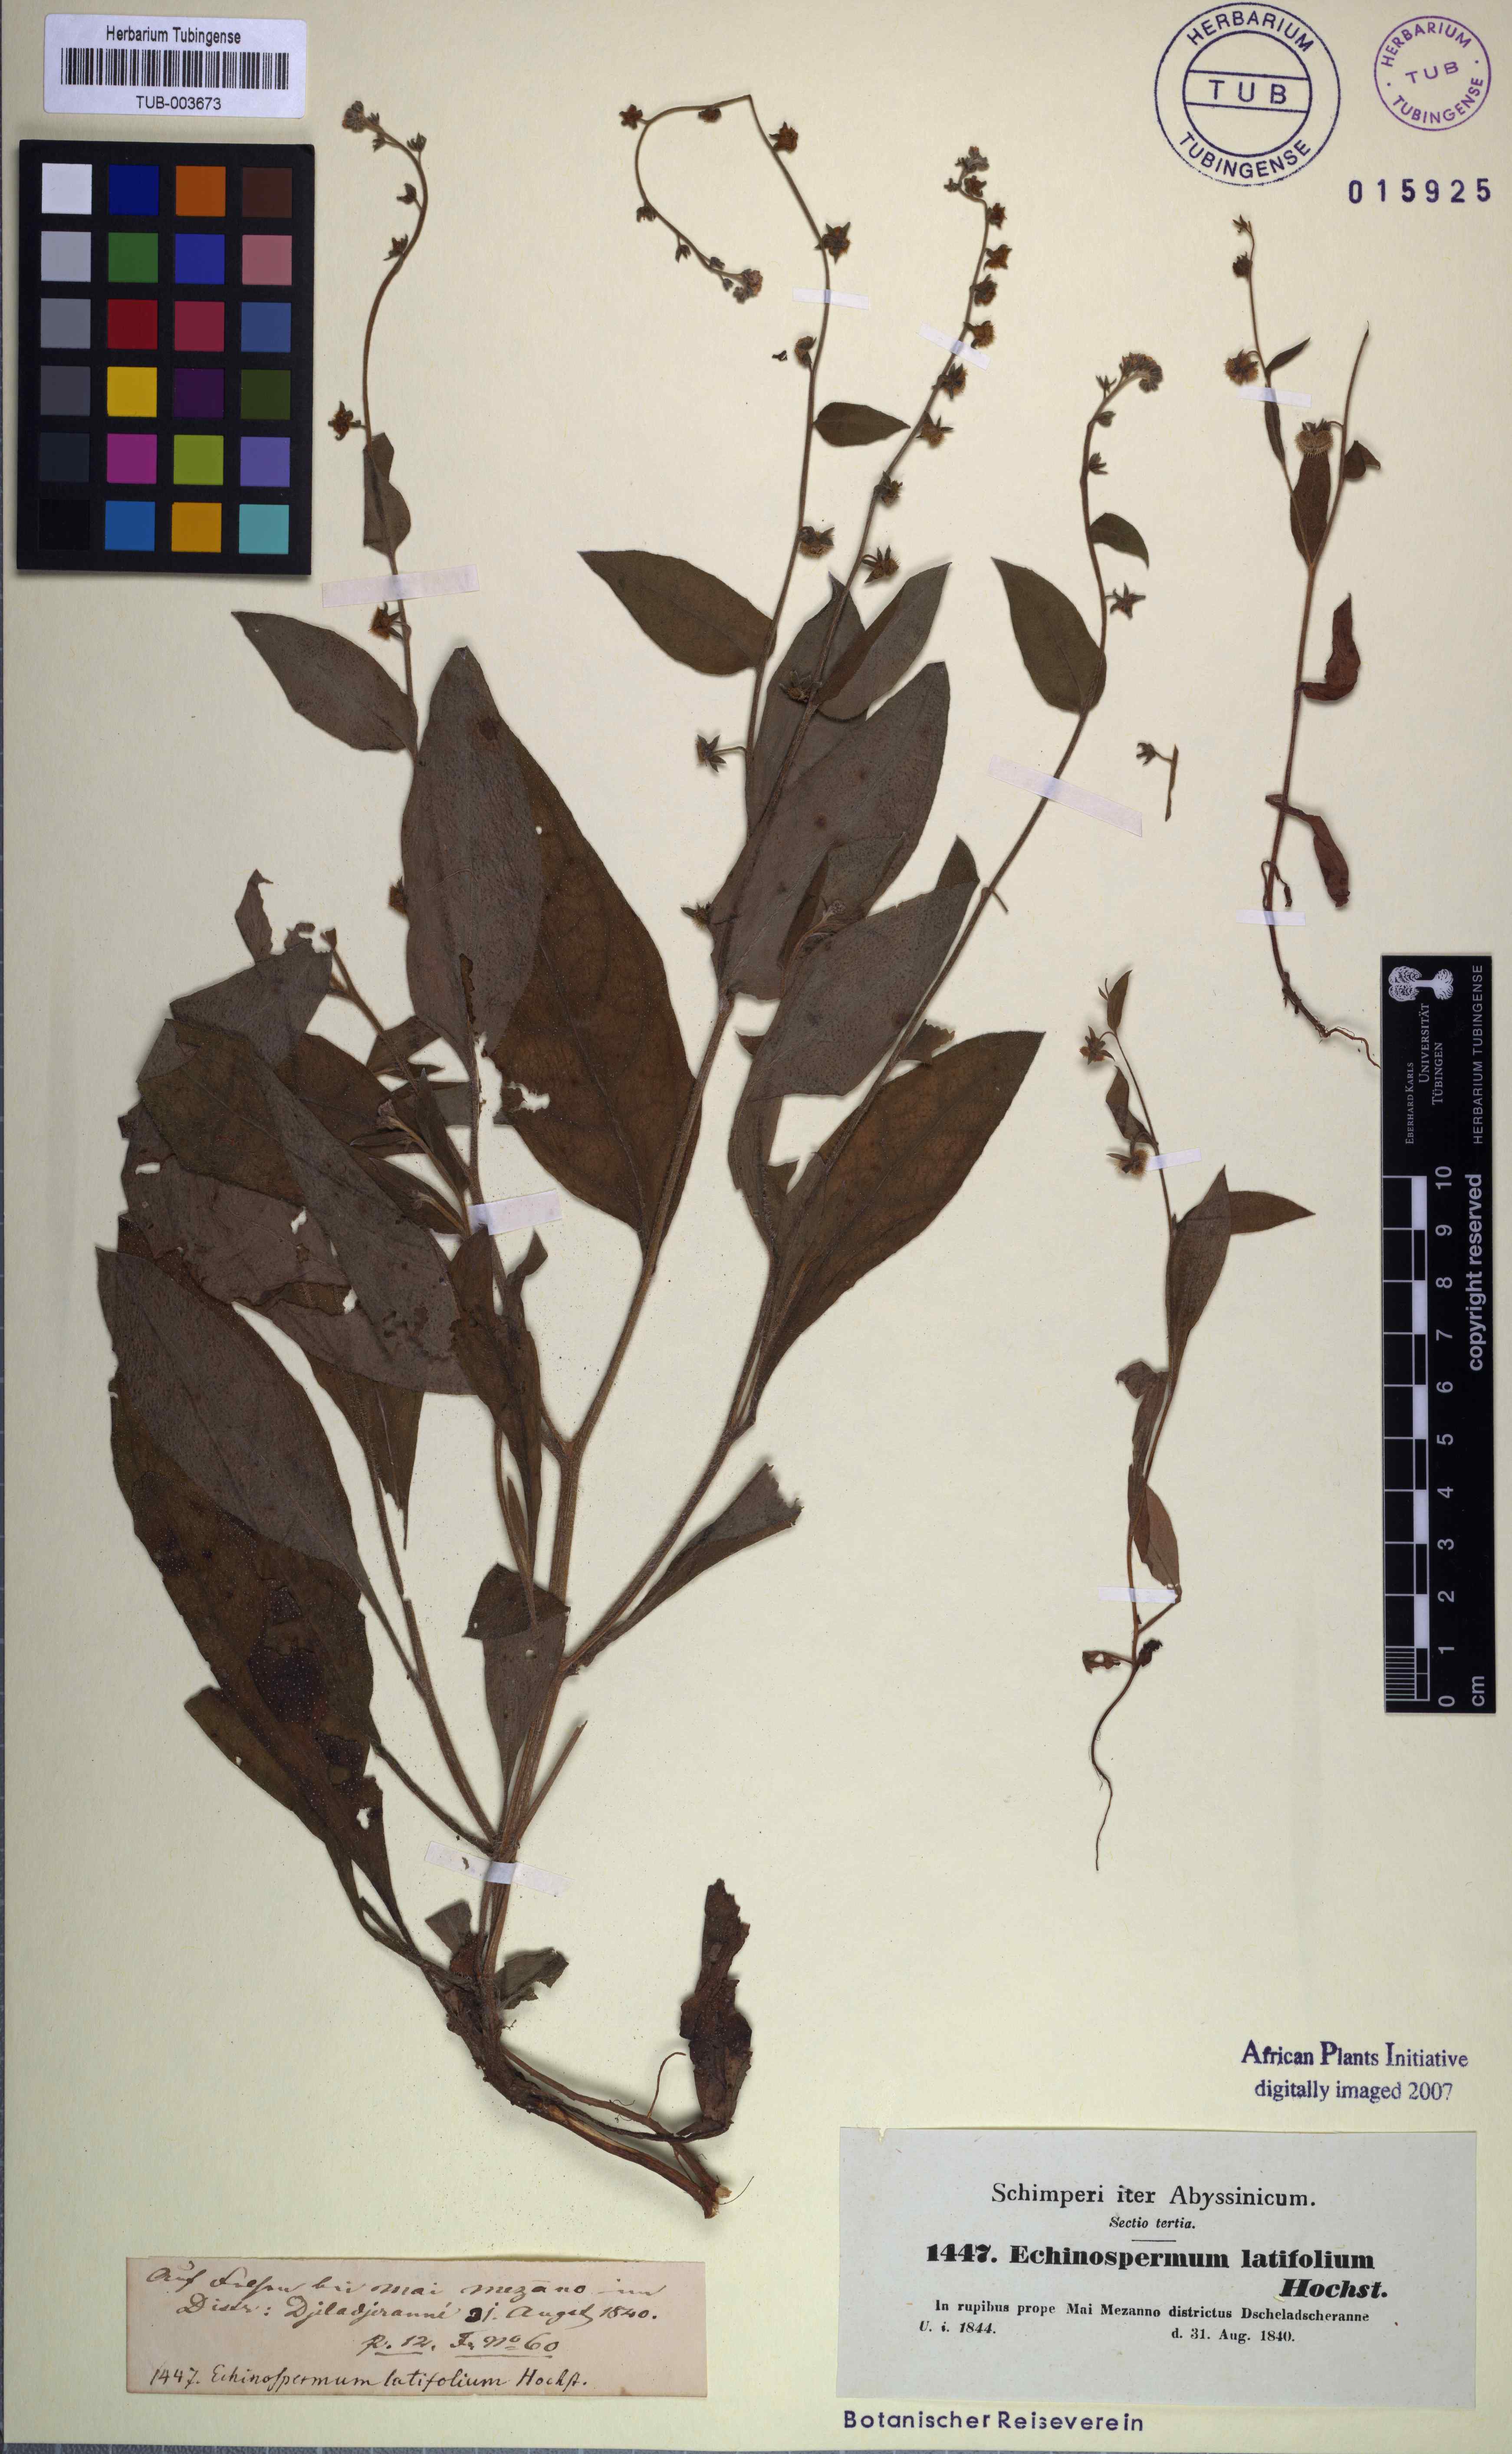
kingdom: Plantae
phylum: Tracheophyta
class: Magnoliopsida
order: Boraginales
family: Boraginaceae
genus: Cynoglossopsis
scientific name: Cynoglossopsis latifolia
